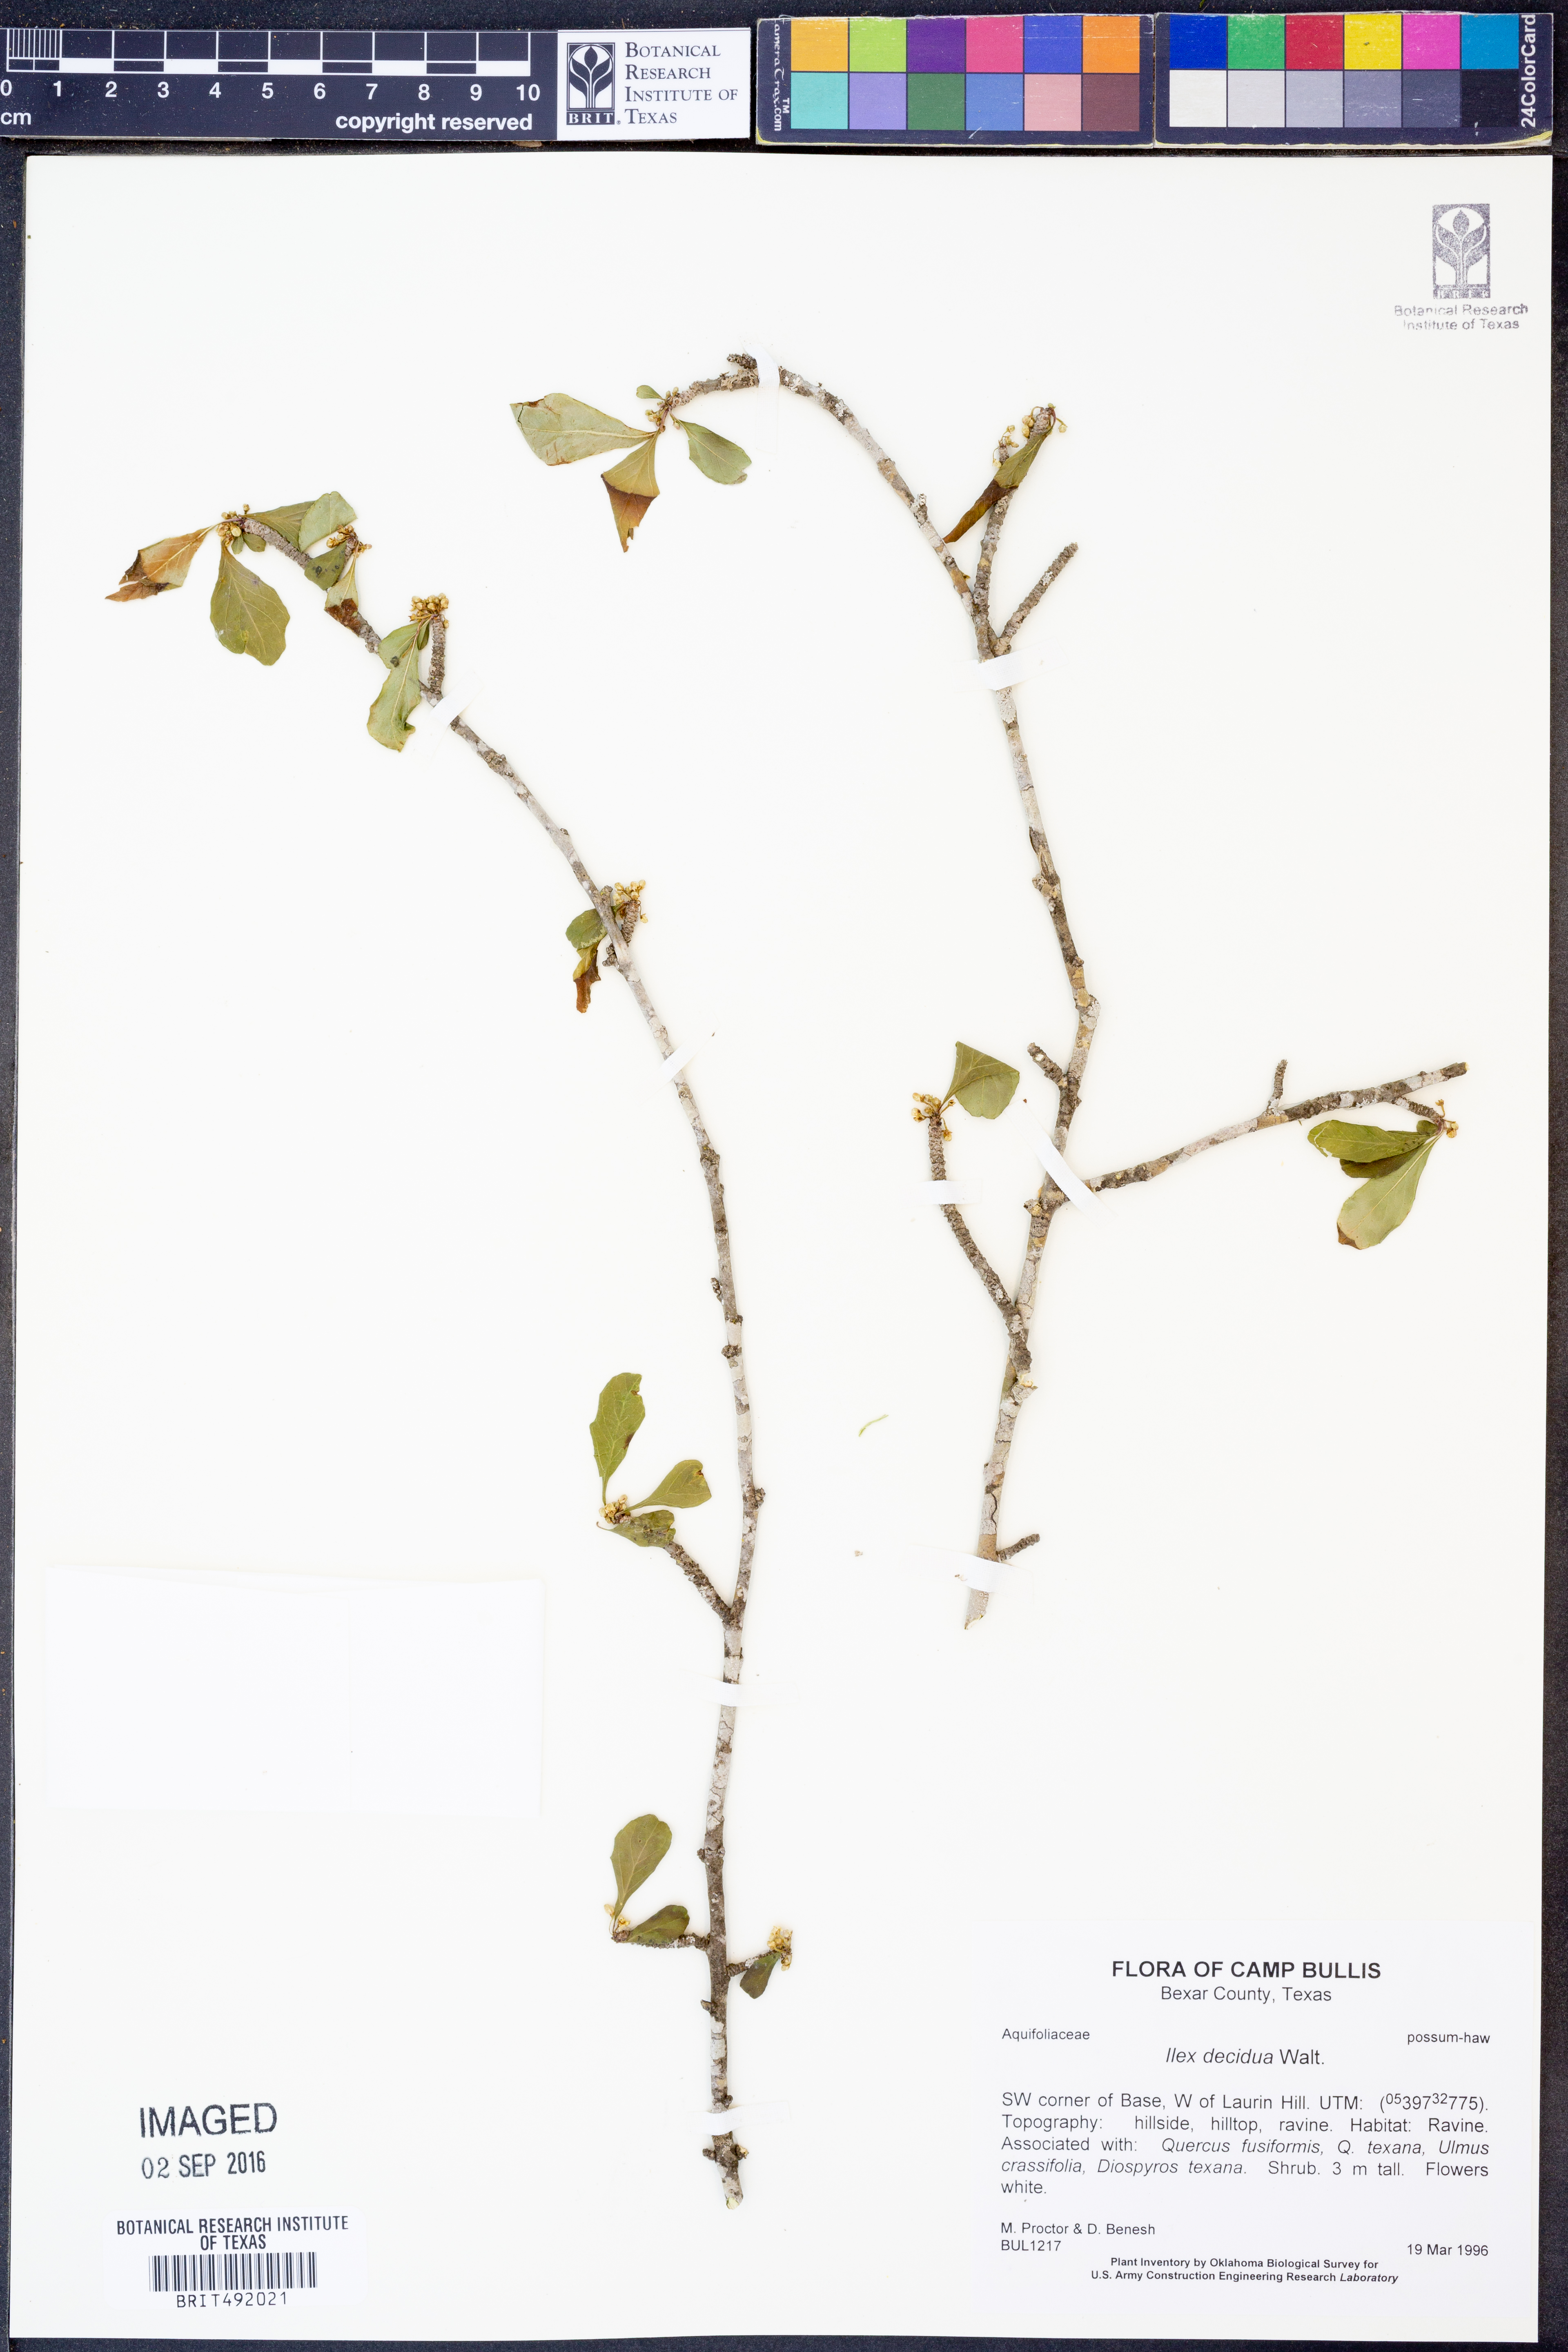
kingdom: Plantae
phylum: Tracheophyta
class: Magnoliopsida
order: Aquifoliales
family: Aquifoliaceae
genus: Ilex
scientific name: Ilex decidua
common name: Possum-haw
